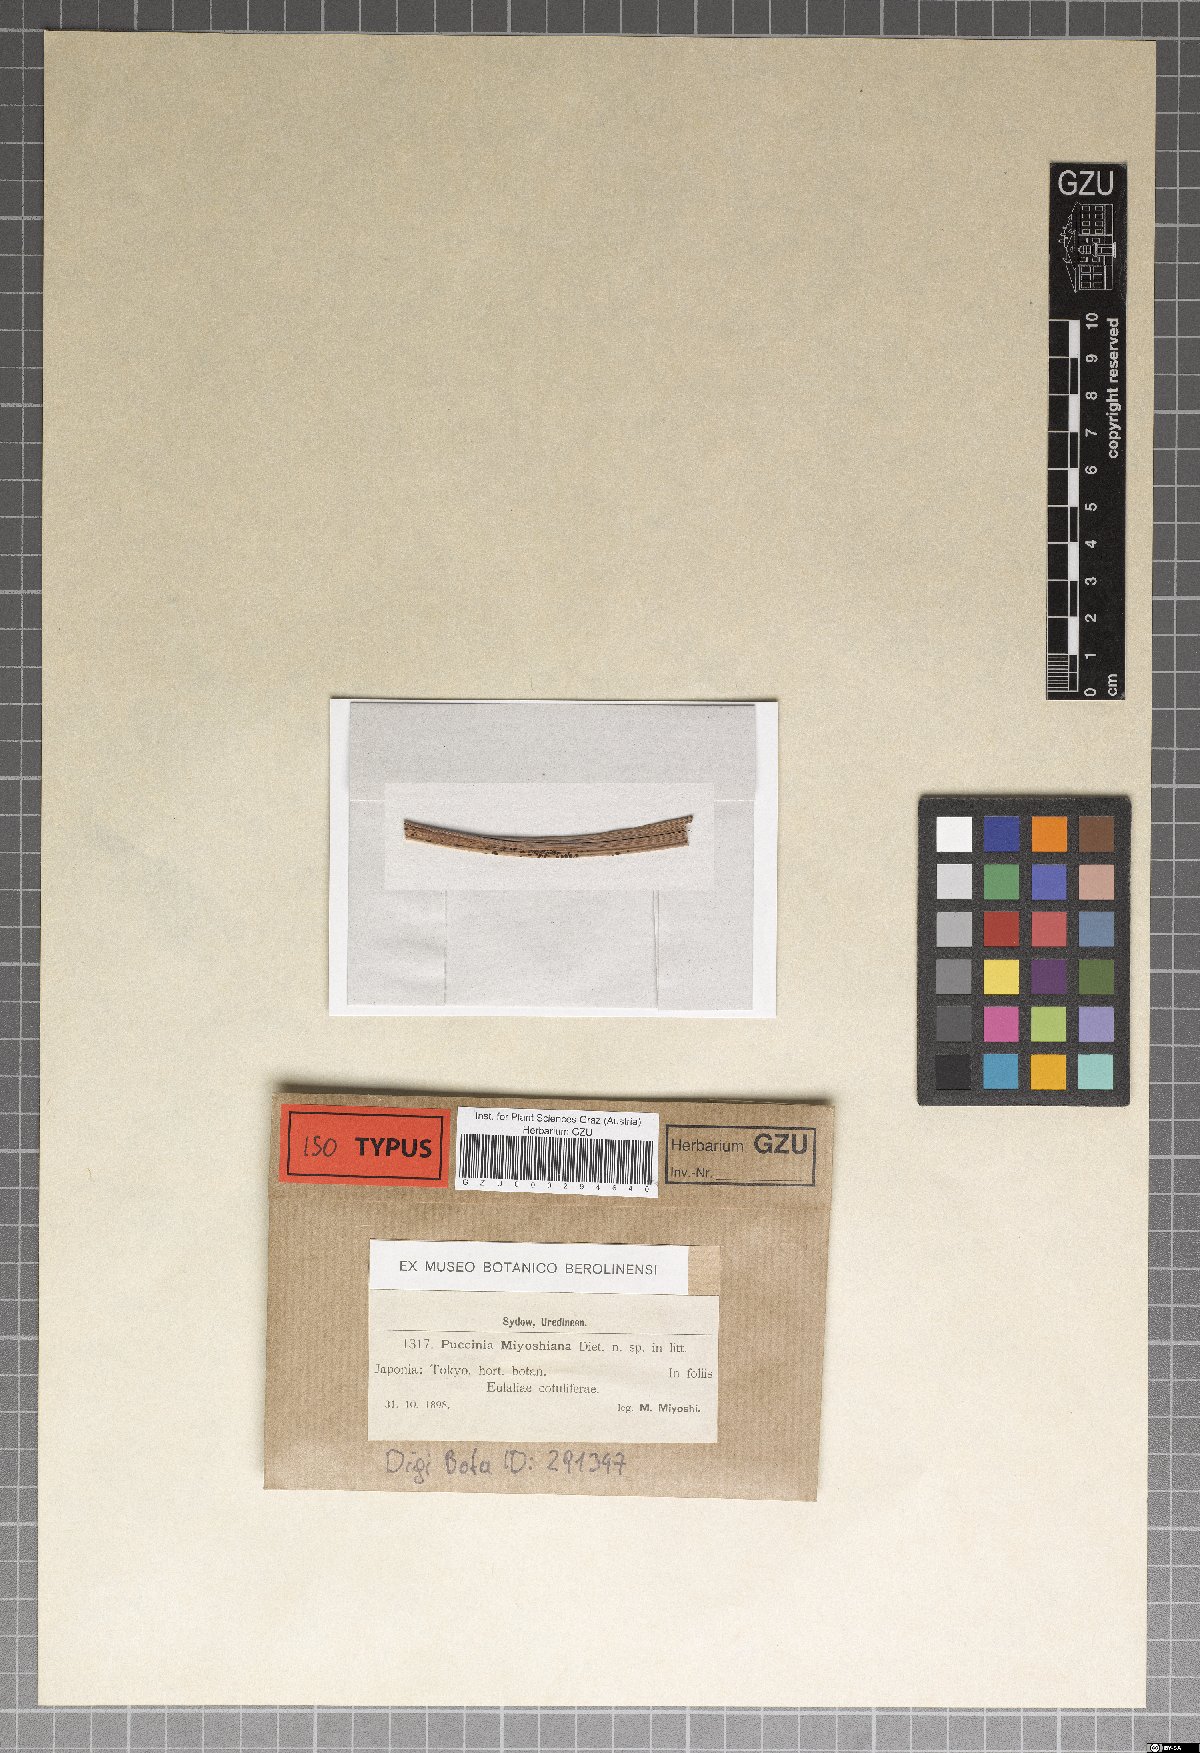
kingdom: Fungi
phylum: Basidiomycota
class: Pucciniomycetes
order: Pucciniales
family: Pucciniaceae
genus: Puccinia
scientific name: Puccinia miyoshiana
